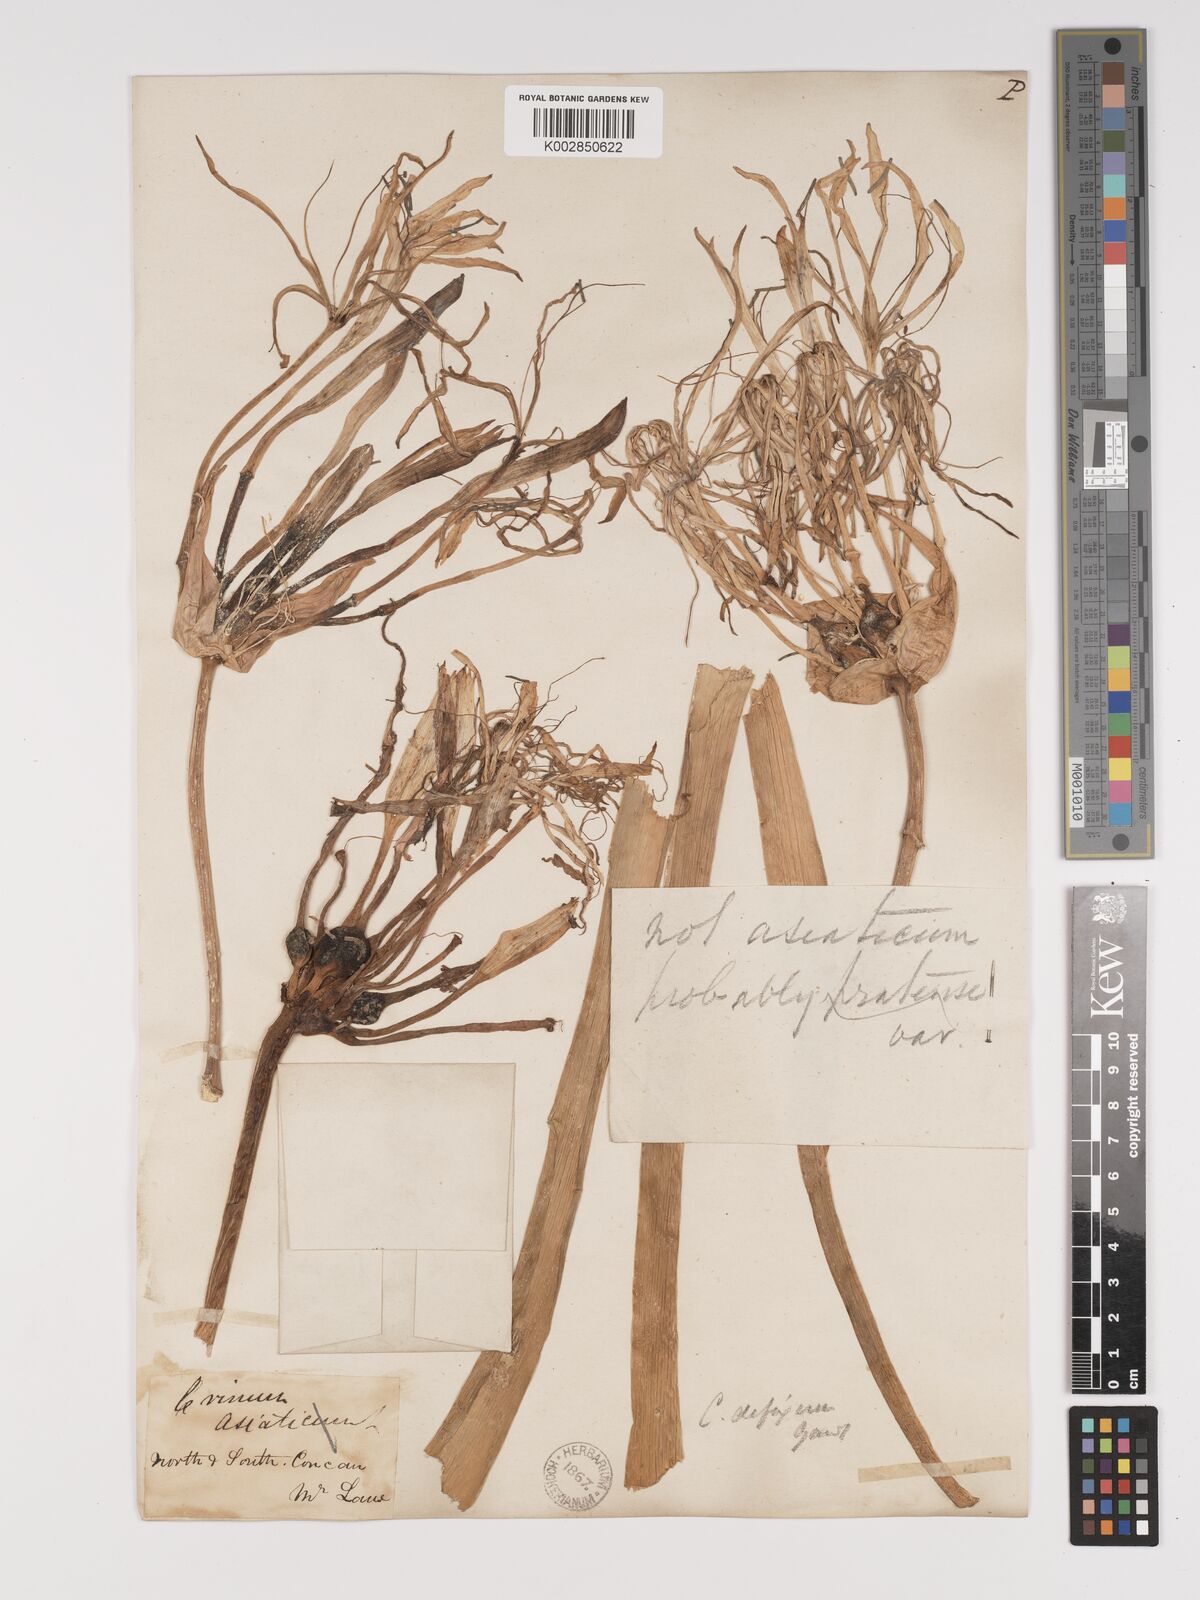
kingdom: Plantae
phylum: Tracheophyta
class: Liliopsida
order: Asparagales
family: Amaryllidaceae
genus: Crinum
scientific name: Crinum defixum
